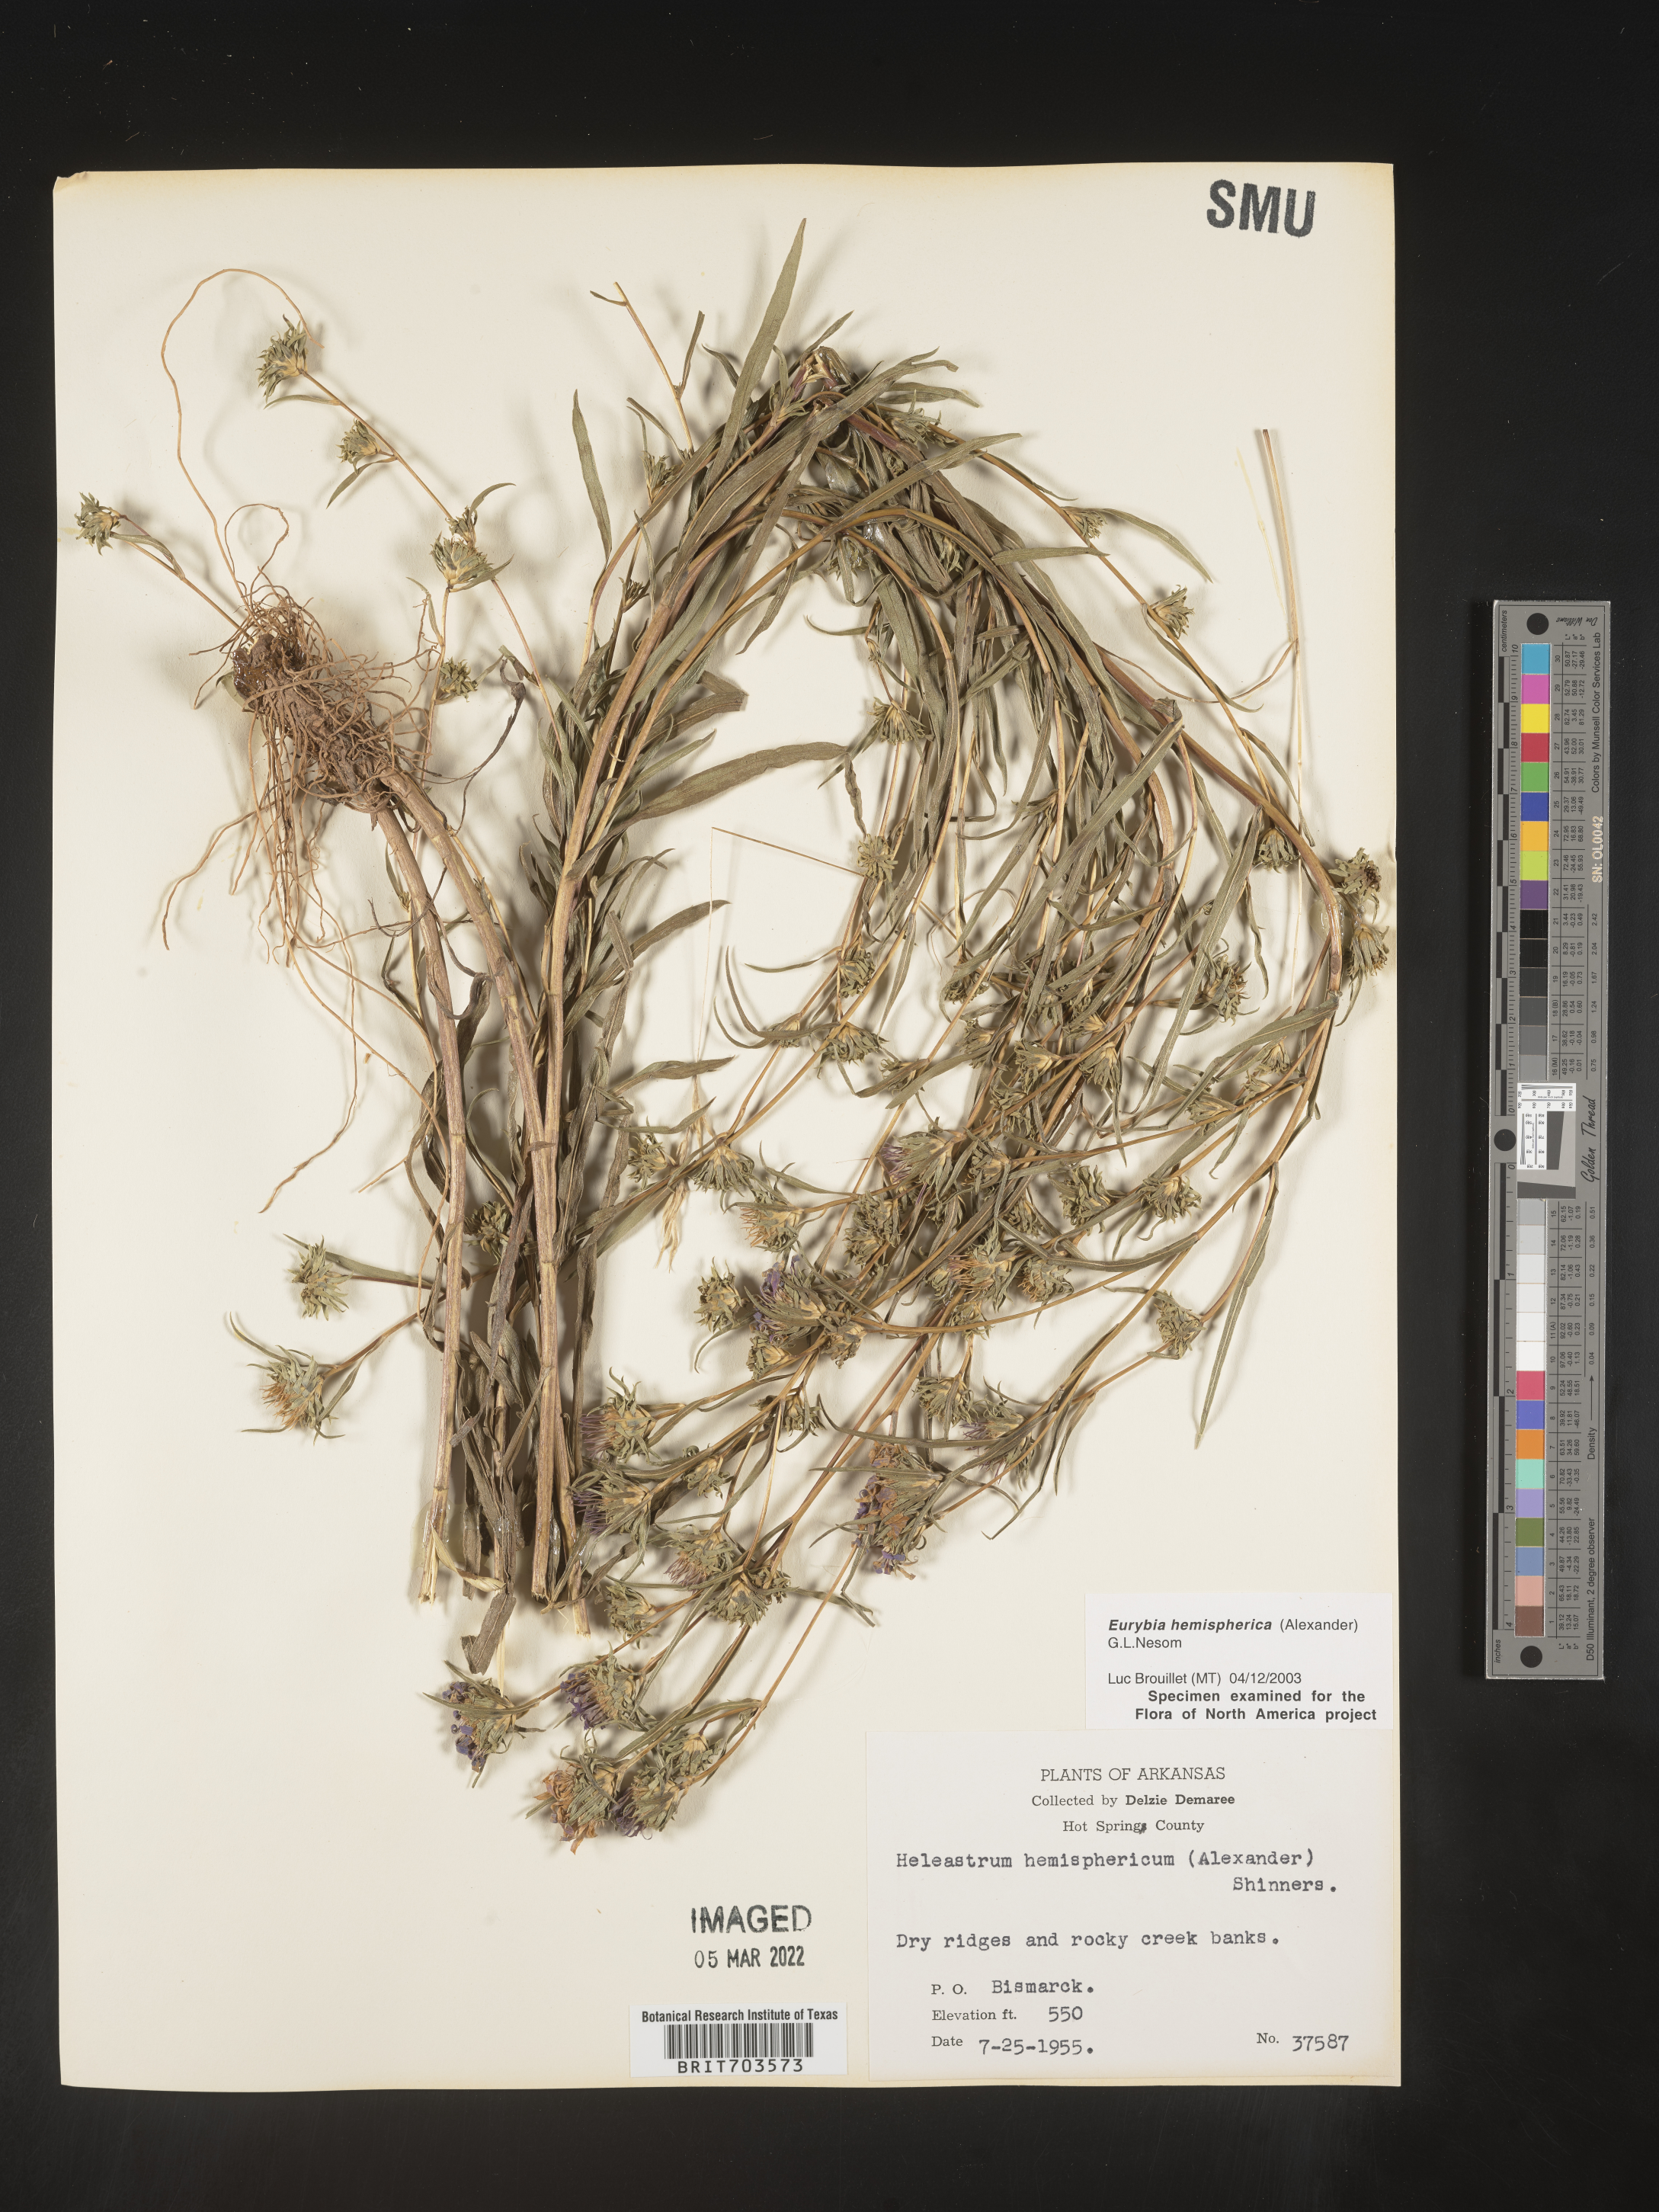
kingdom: Plantae
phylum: Tracheophyta
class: Magnoliopsida
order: Asterales
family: Asteraceae
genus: Eurybia
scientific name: Eurybia hemispherica
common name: Showy aster
